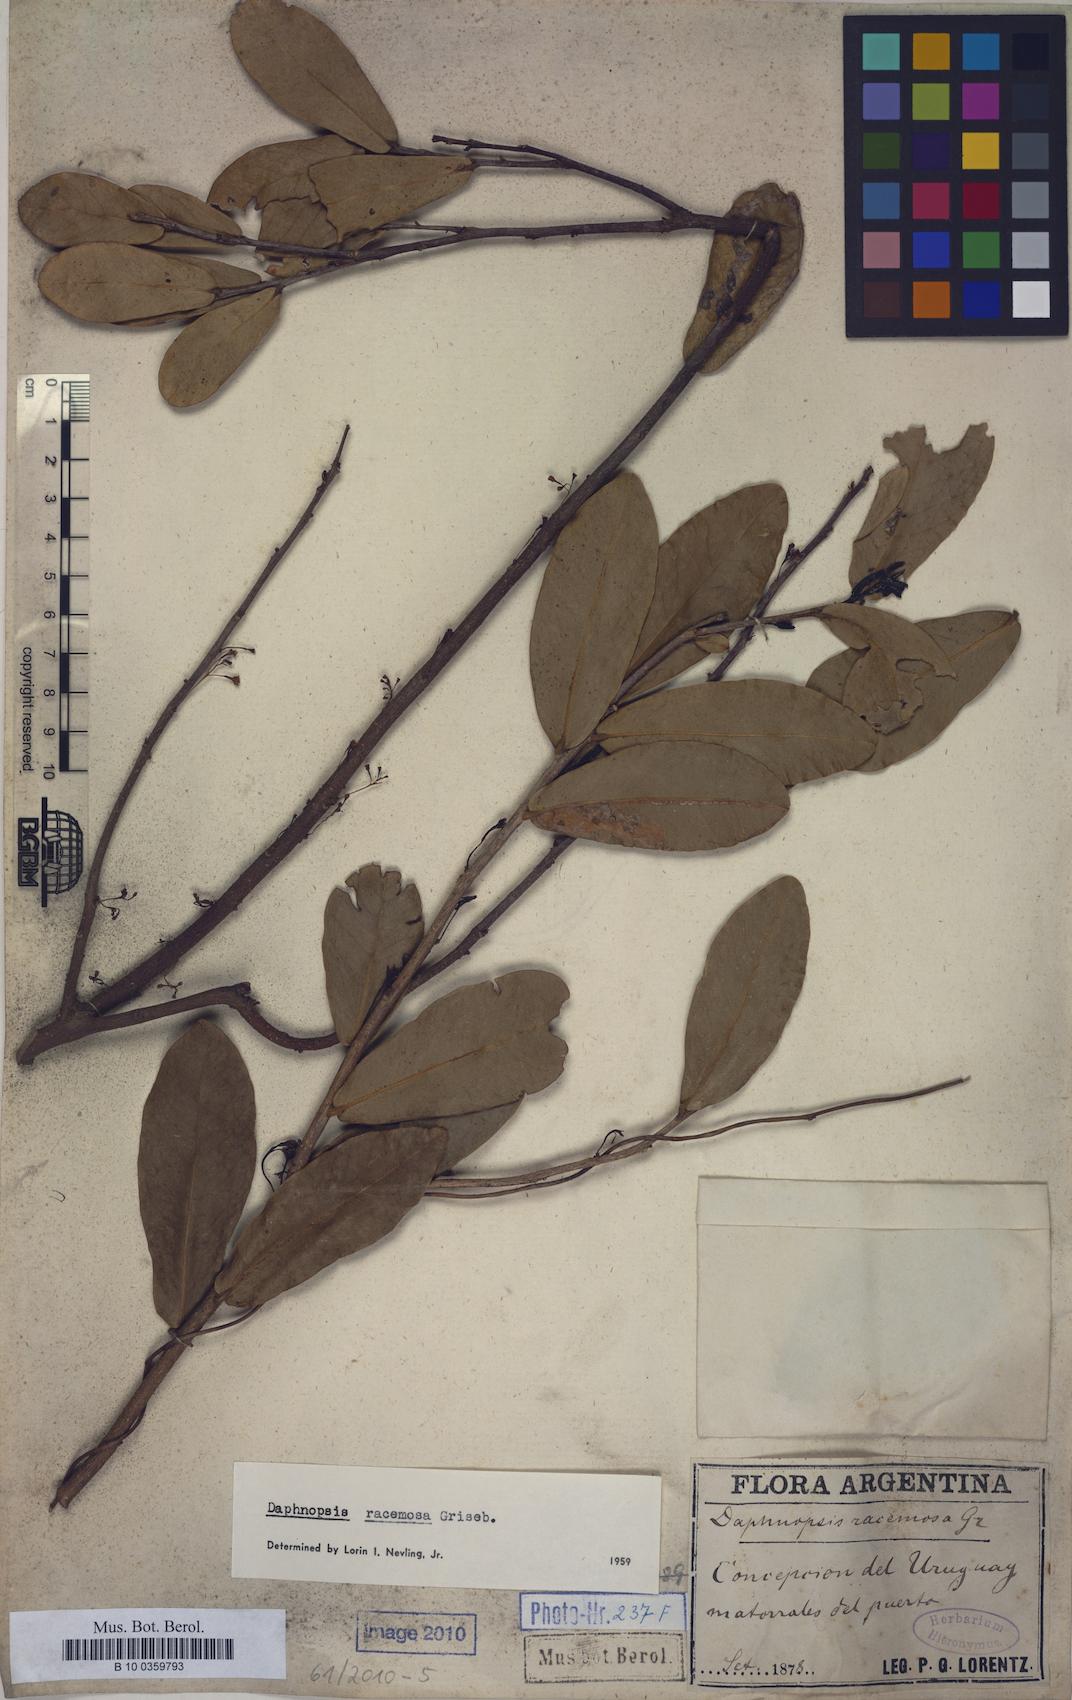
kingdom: Plantae
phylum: Tracheophyta
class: Magnoliopsida
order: Malvales
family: Thymelaeaceae
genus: Daphnopsis
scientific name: Daphnopsis racemosa
